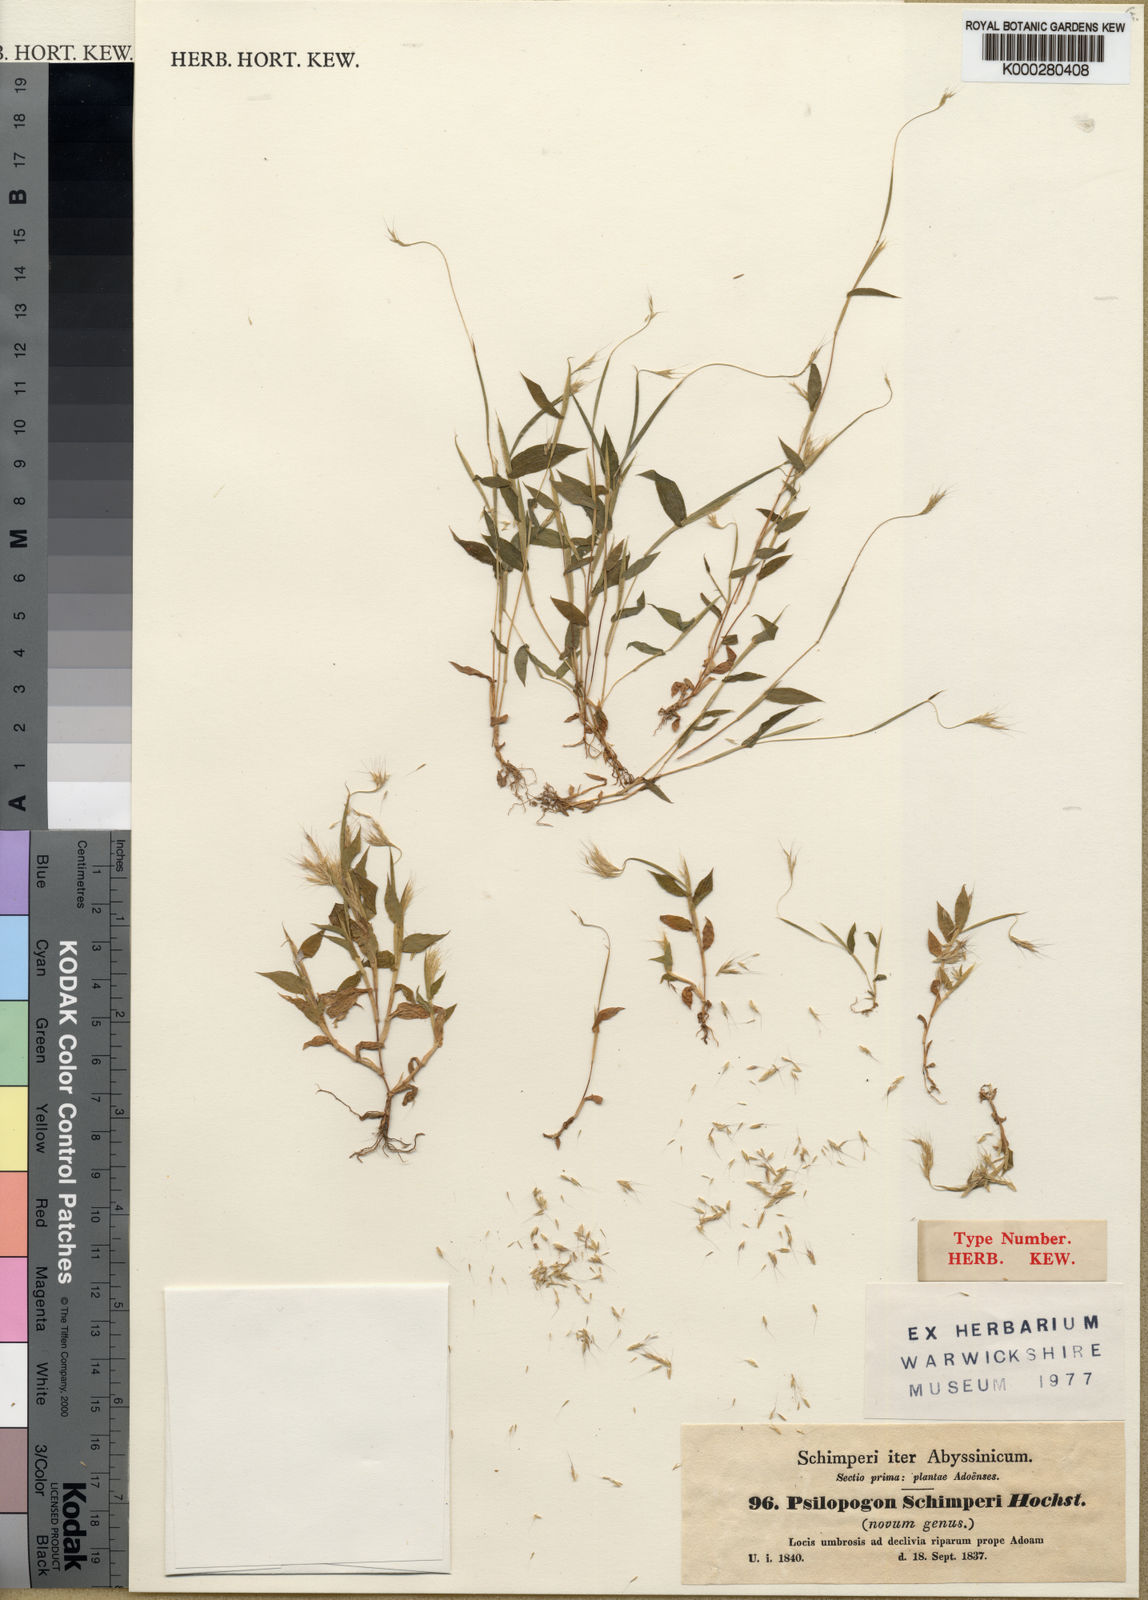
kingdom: Plantae
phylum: Tracheophyta
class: Liliopsida
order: Poales
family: Poaceae
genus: Arthraxon
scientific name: Arthraxon lancifolius
